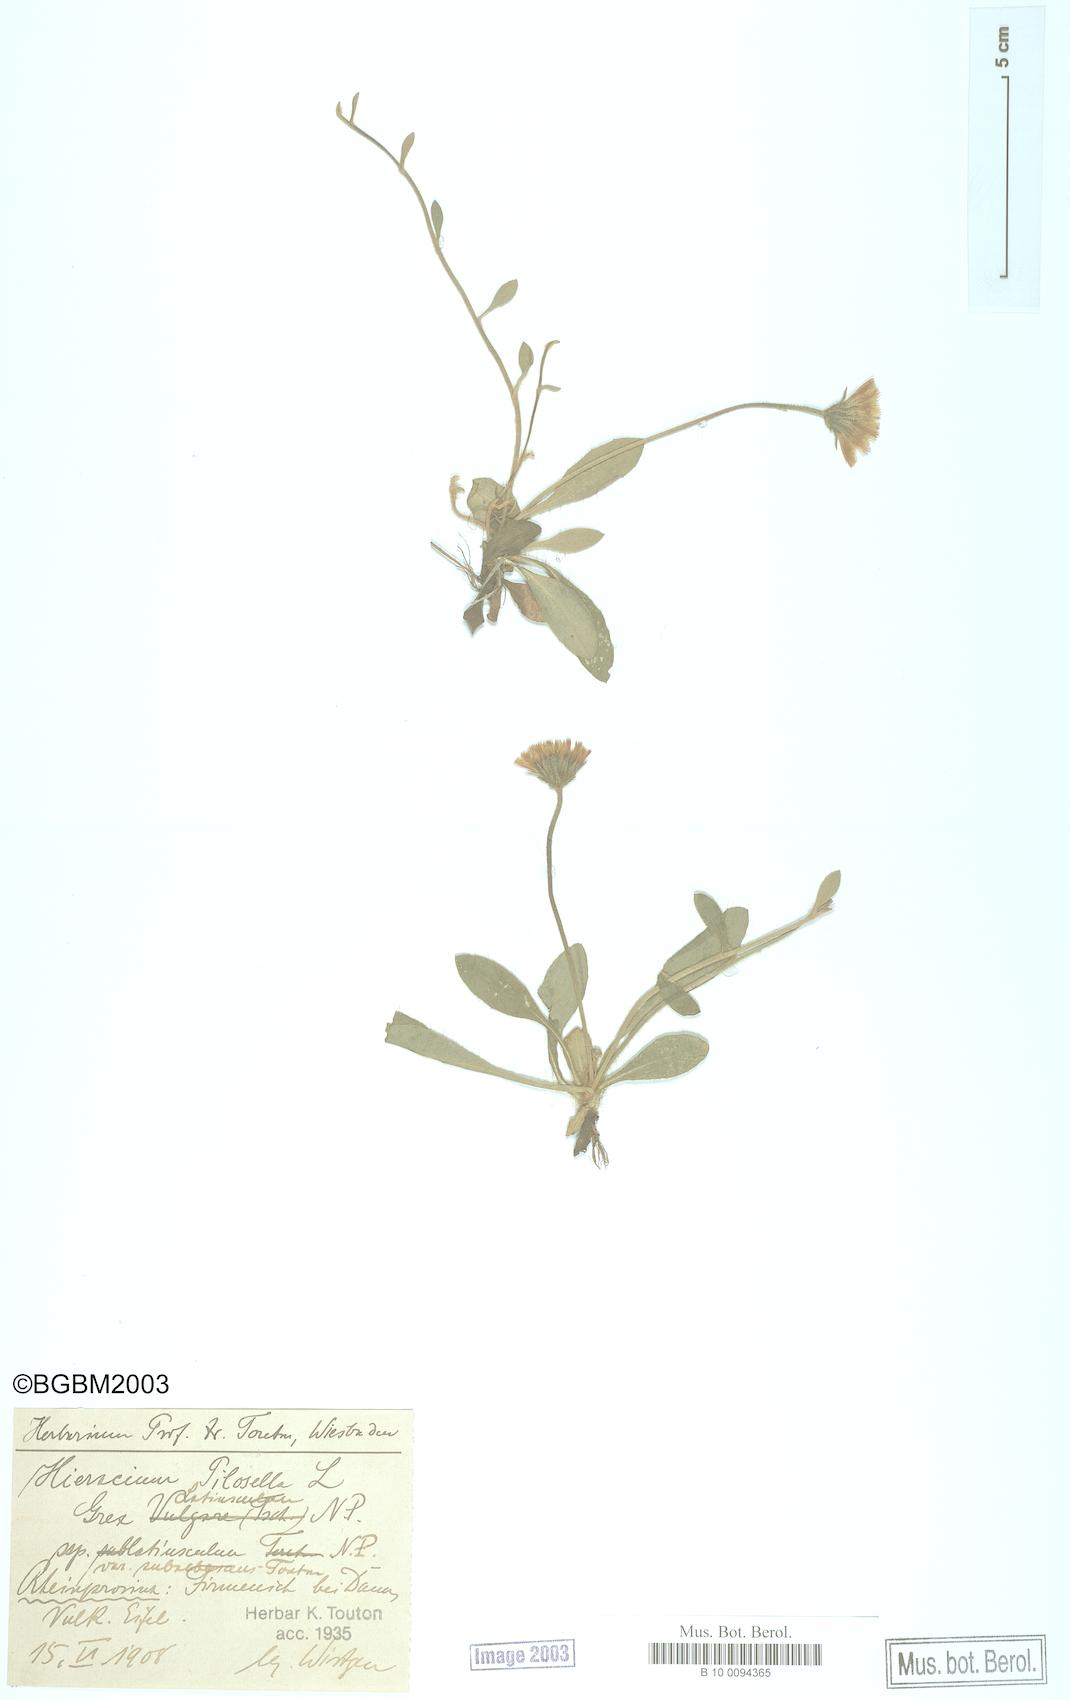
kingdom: Plantae
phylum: Tracheophyta
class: Magnoliopsida
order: Asterales
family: Asteraceae
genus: Pilosella
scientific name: Pilosella officinarum
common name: Mouse-ear hawkweed
